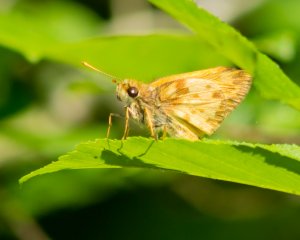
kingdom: Animalia
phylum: Arthropoda
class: Insecta
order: Lepidoptera
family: Hesperiidae
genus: Lon
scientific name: Lon zabulon
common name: Zabulon Skipper
